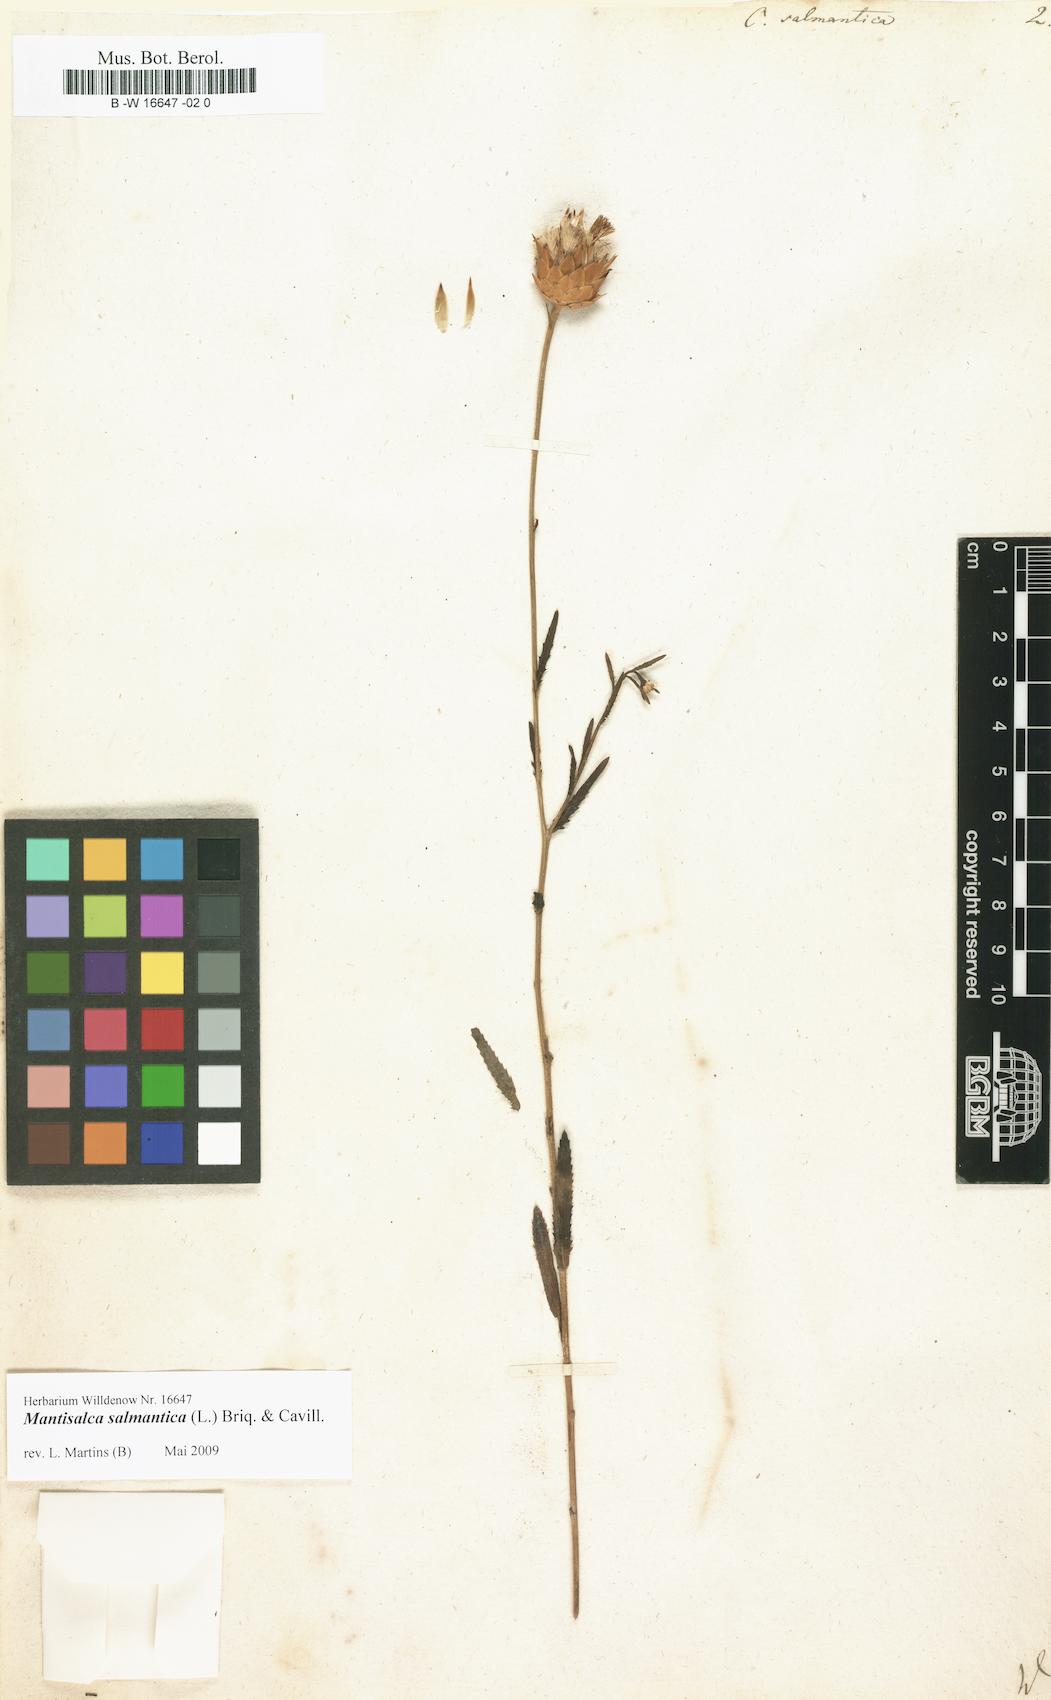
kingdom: Plantae
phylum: Tracheophyta
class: Magnoliopsida
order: Asterales
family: Asteraceae
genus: Mantisalca
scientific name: Mantisalca salmantica
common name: Dagger flower
